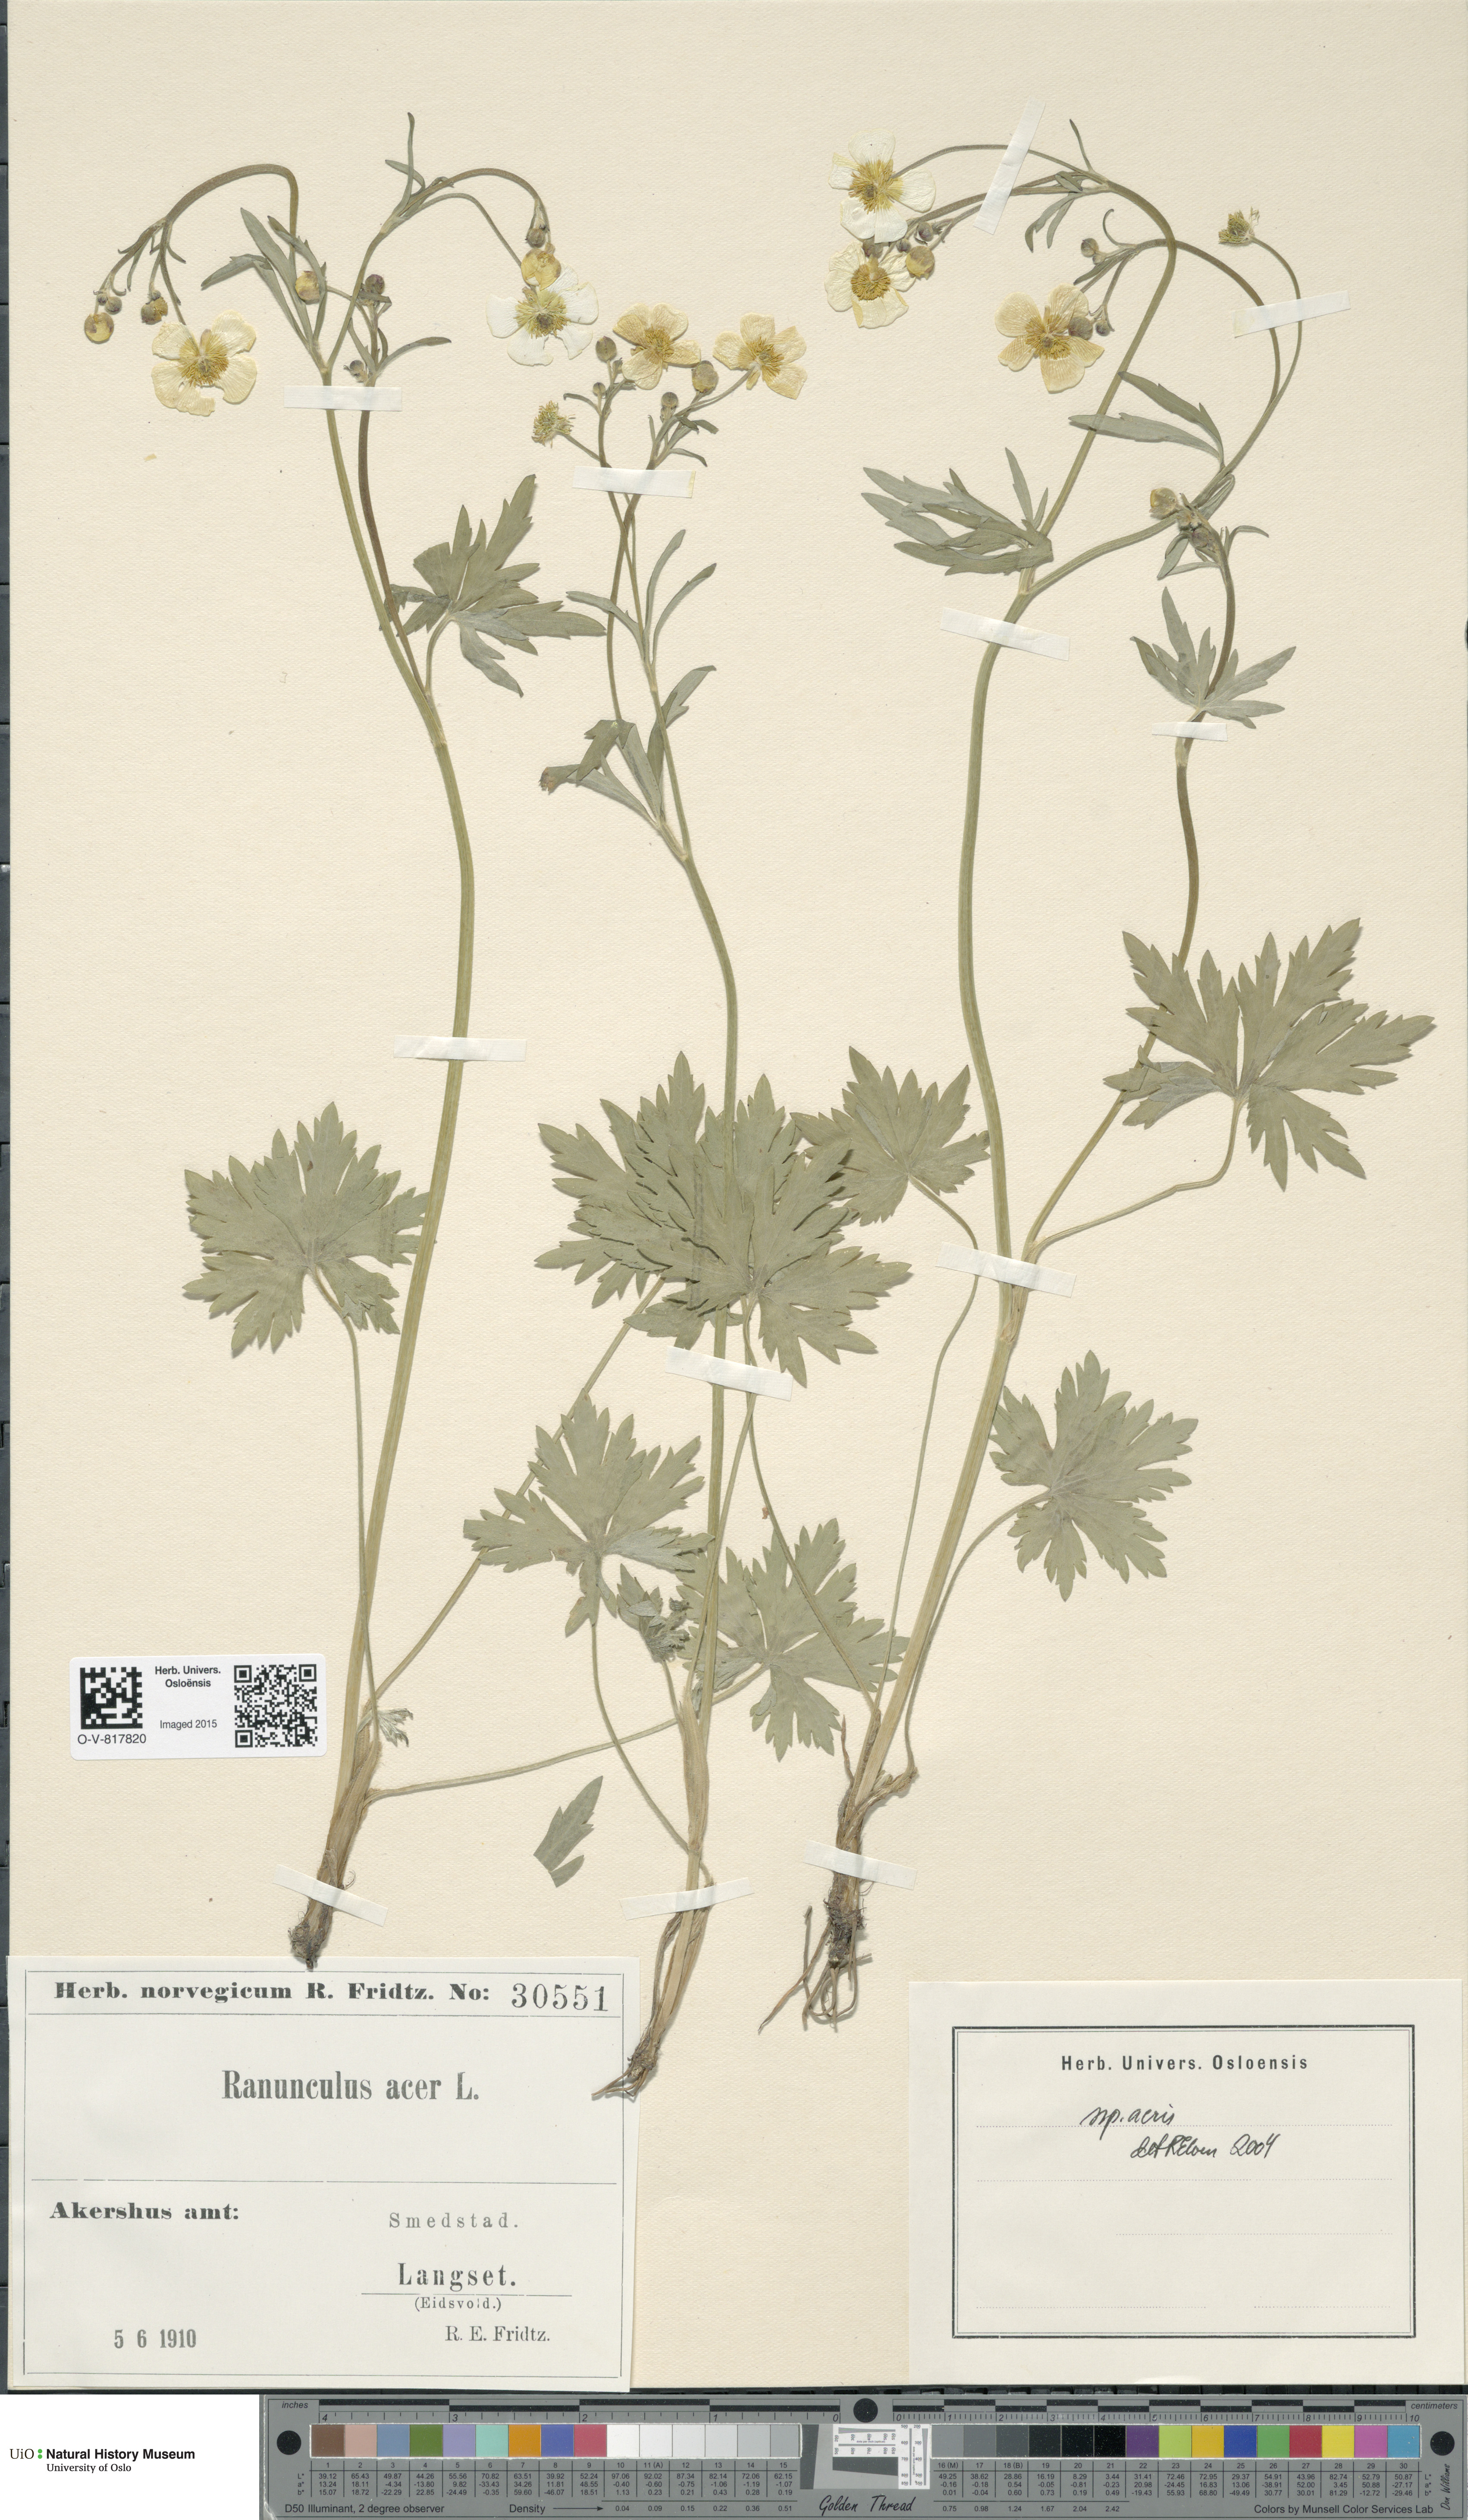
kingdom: Plantae
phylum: Tracheophyta
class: Magnoliopsida
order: Ranunculales
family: Ranunculaceae
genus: Ranunculus
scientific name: Ranunculus acris
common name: Meadow buttercup
